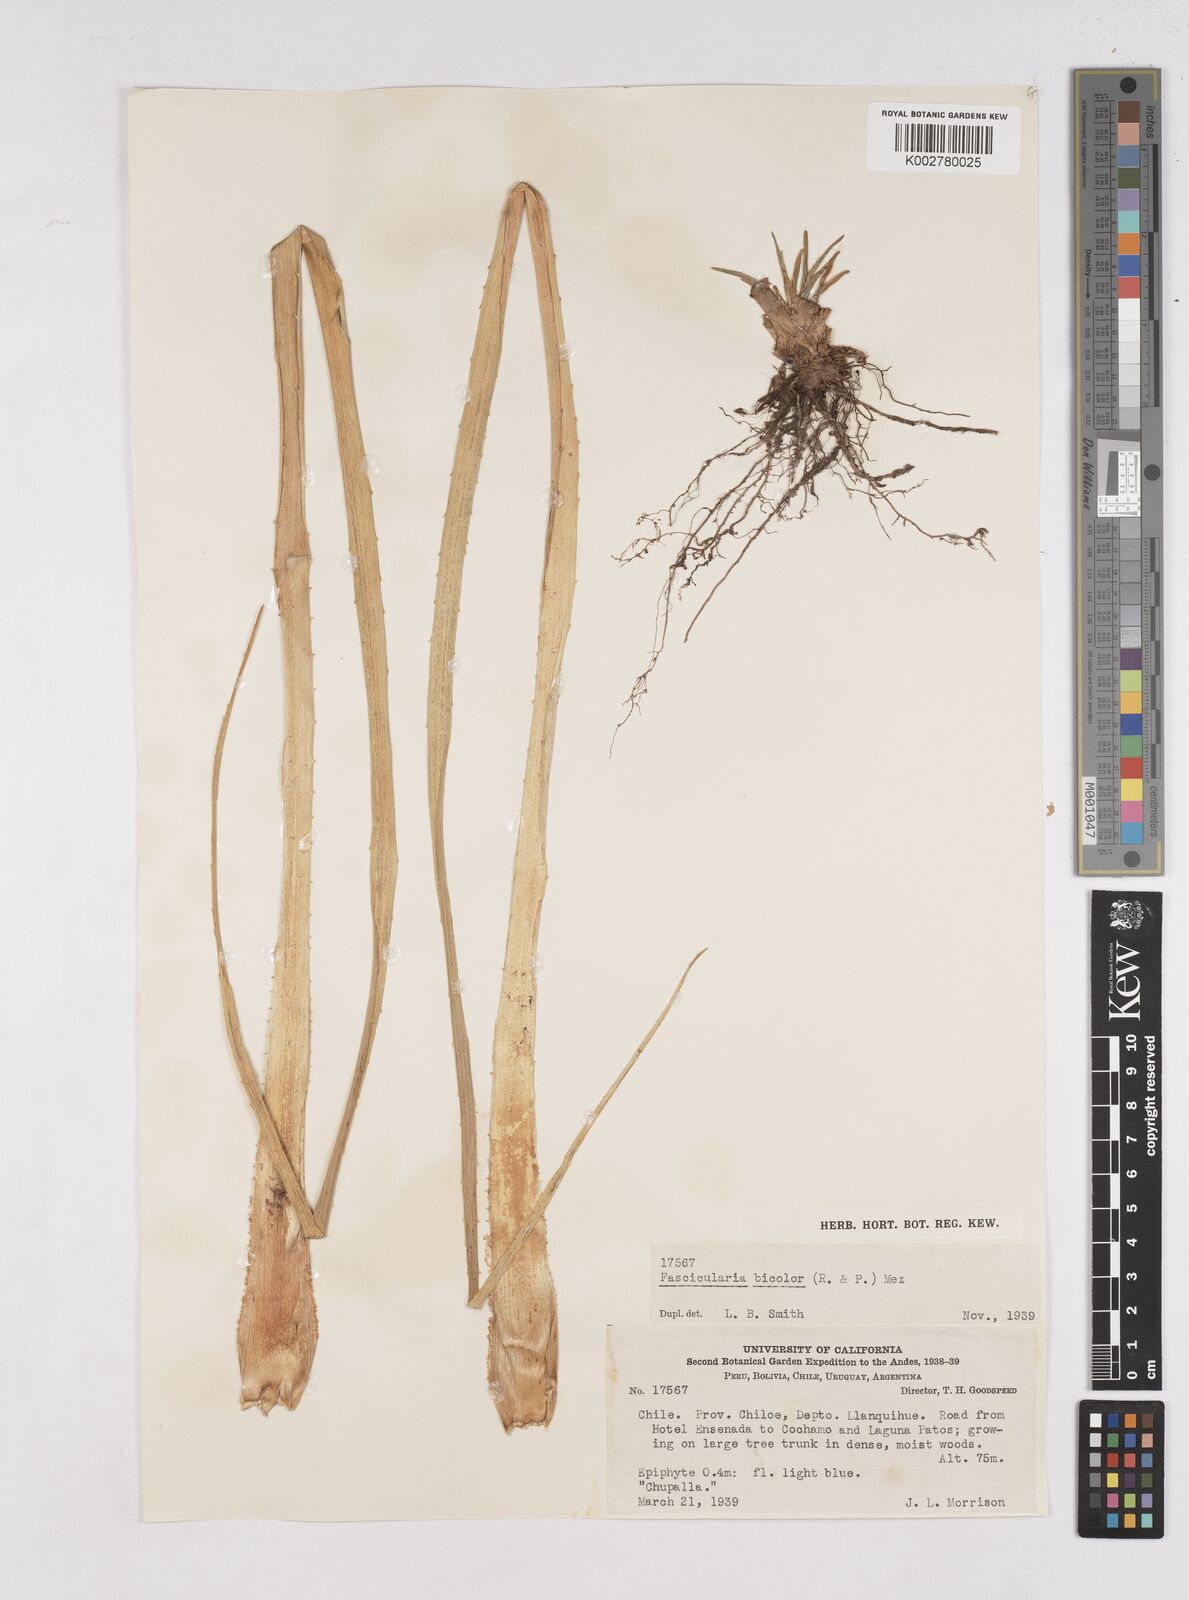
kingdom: Plantae
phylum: Tracheophyta
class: Liliopsida
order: Poales
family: Bromeliaceae
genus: Fascicularia
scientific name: Fascicularia bicolor
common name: Rhodostachys
